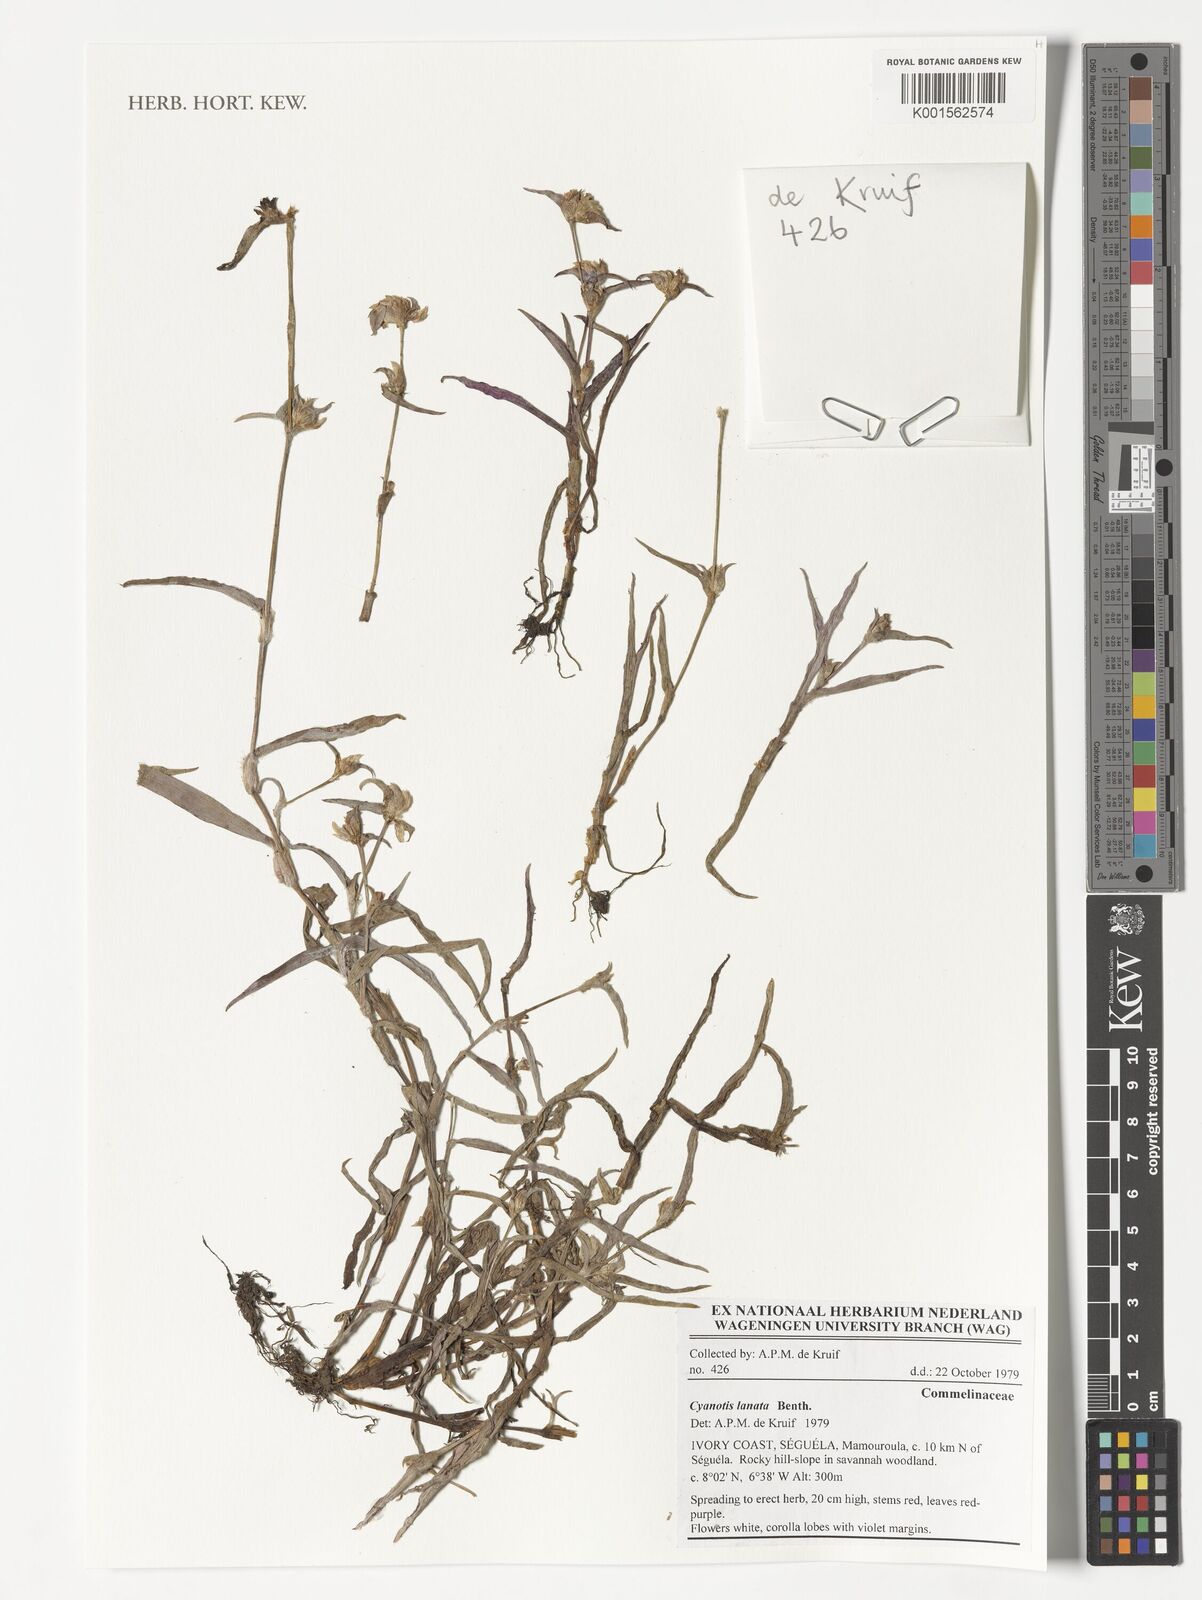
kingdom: Plantae
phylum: Tracheophyta
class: Liliopsida
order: Commelinales
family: Commelinaceae
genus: Cyanotis
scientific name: Cyanotis lanata
